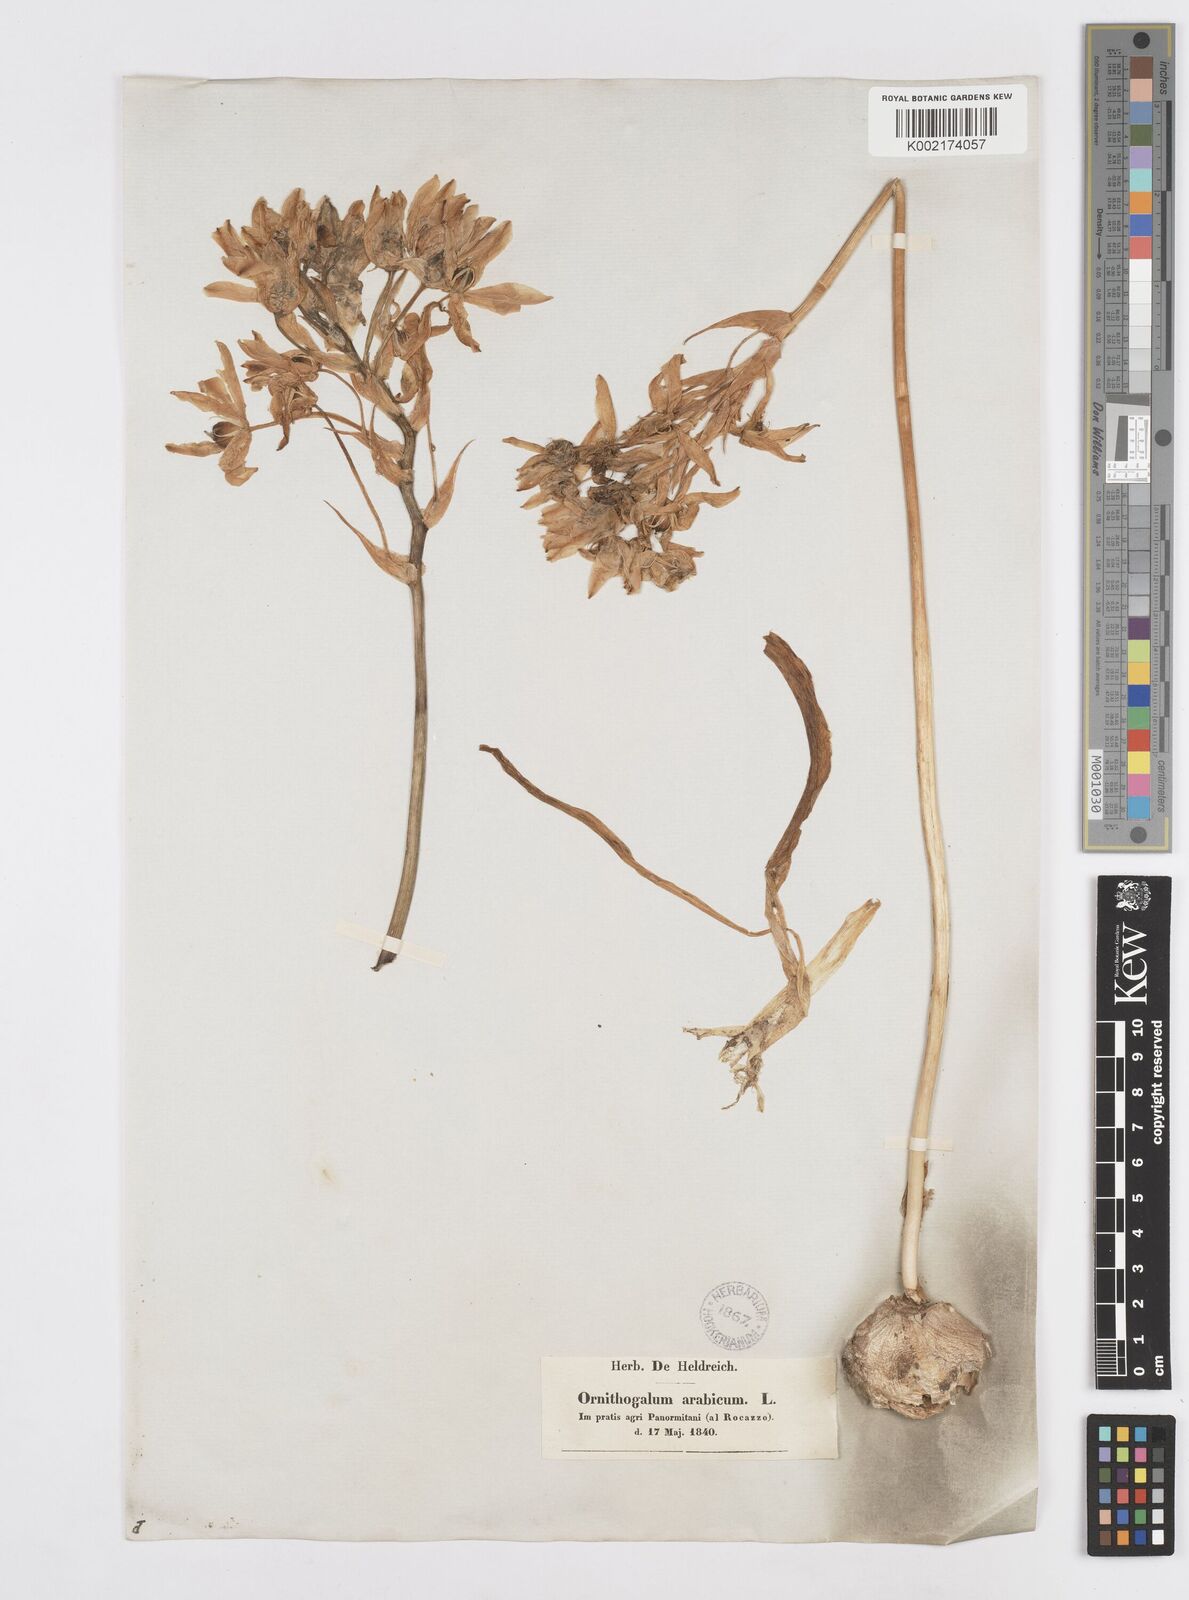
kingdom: Plantae
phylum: Tracheophyta
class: Liliopsida
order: Asparagales
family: Asparagaceae
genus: Ornithogalum
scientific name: Ornithogalum arabicum
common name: Arabian starflower
